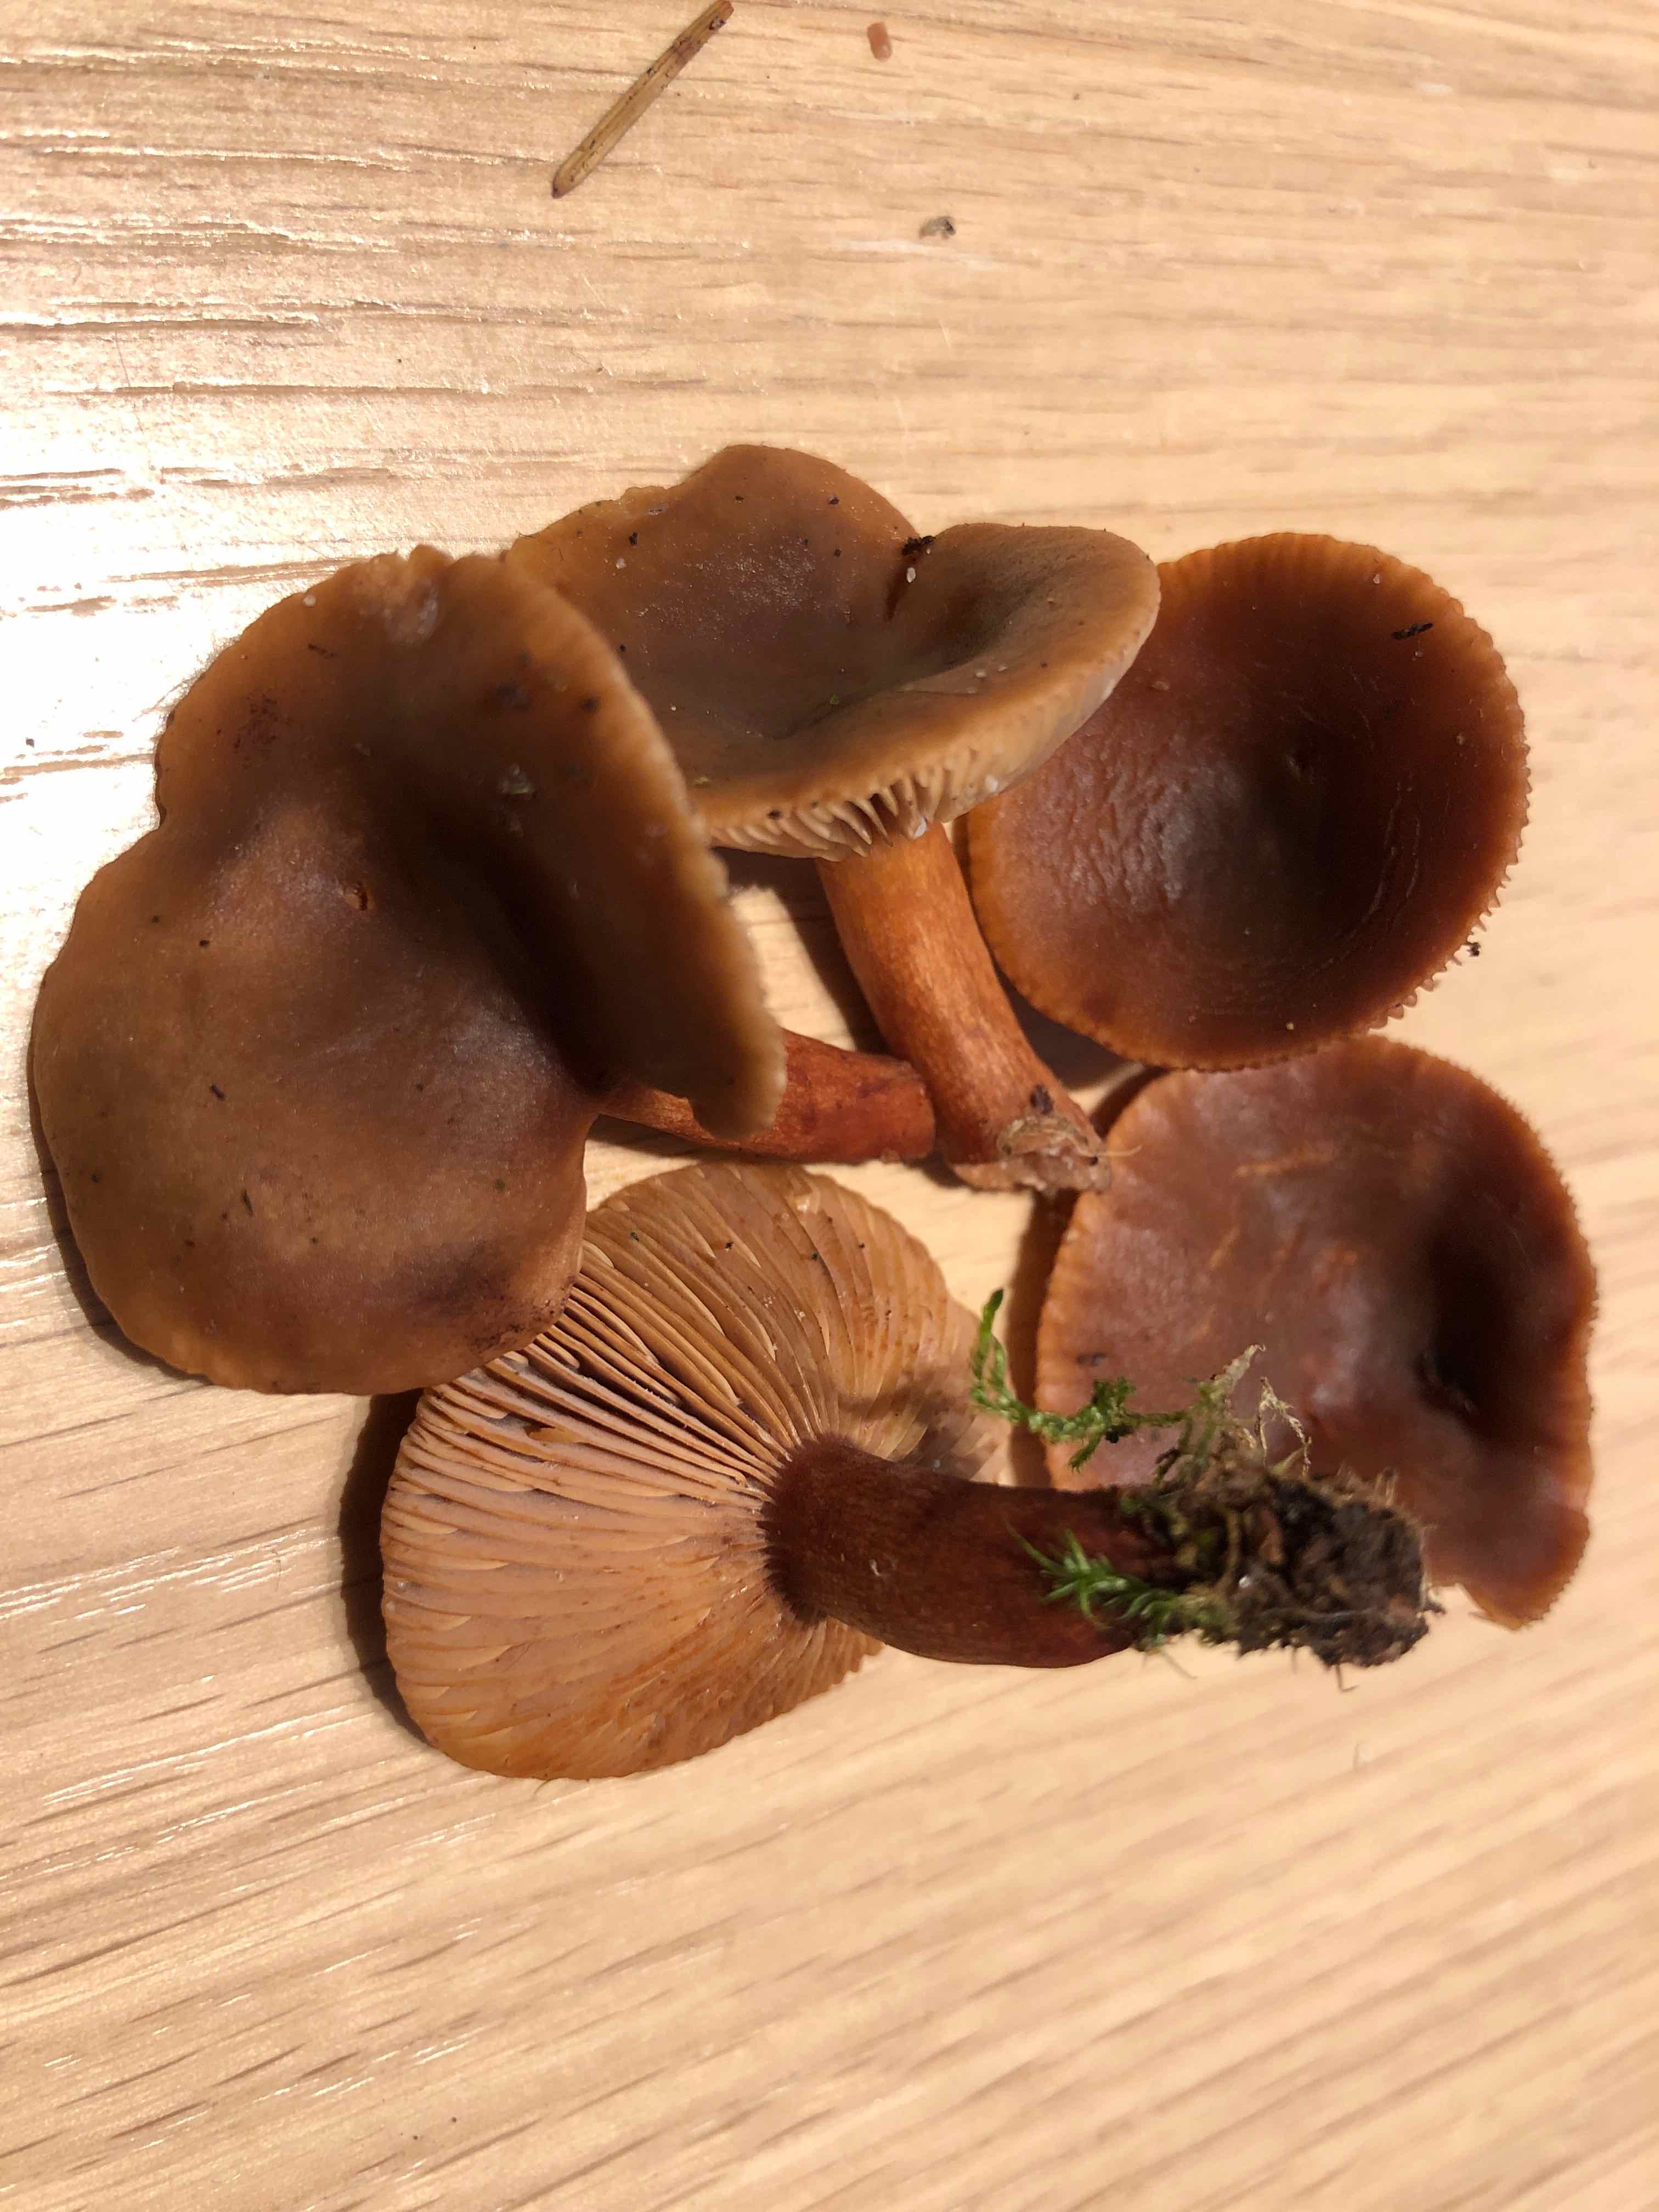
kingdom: Fungi
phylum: Basidiomycota
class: Agaricomycetes
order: Russulales
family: Russulaceae
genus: Lactarius
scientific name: Lactarius hepaticus
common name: leverbrun mælkehat
